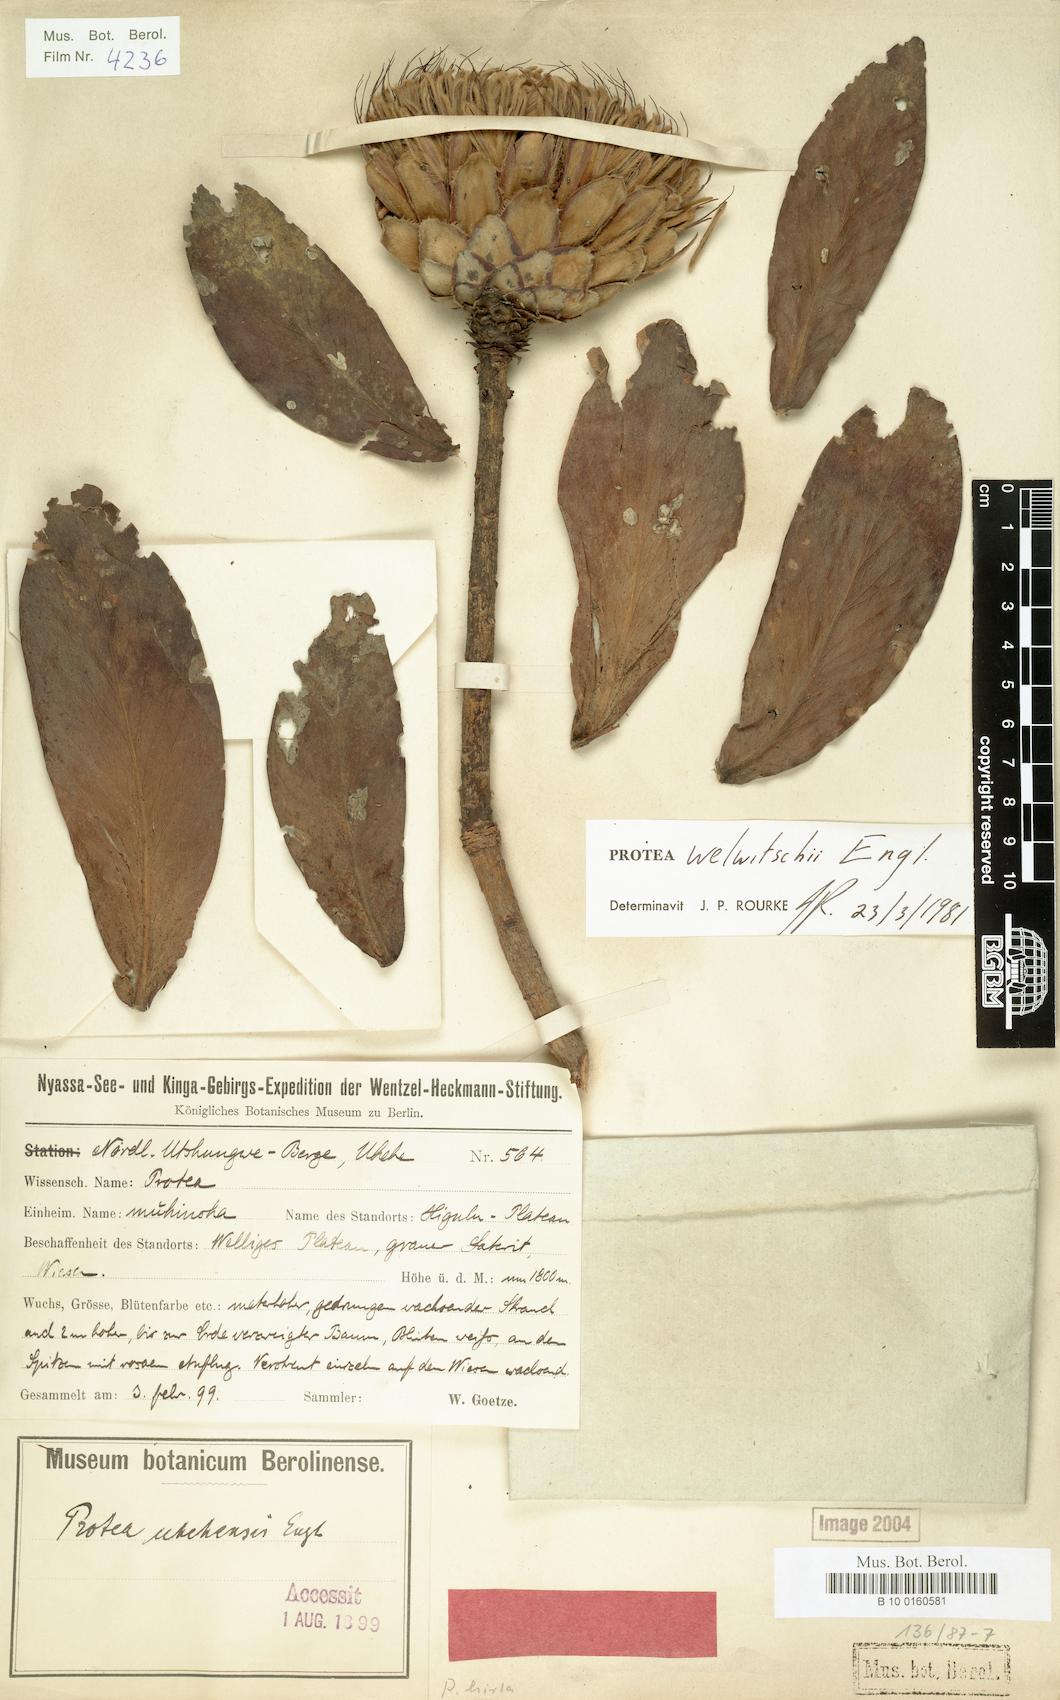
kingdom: Plantae
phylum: Tracheophyta
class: Magnoliopsida
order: Proteales
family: Proteaceae
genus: Protea
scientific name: Protea welwitschii
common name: Cluster-head protea
